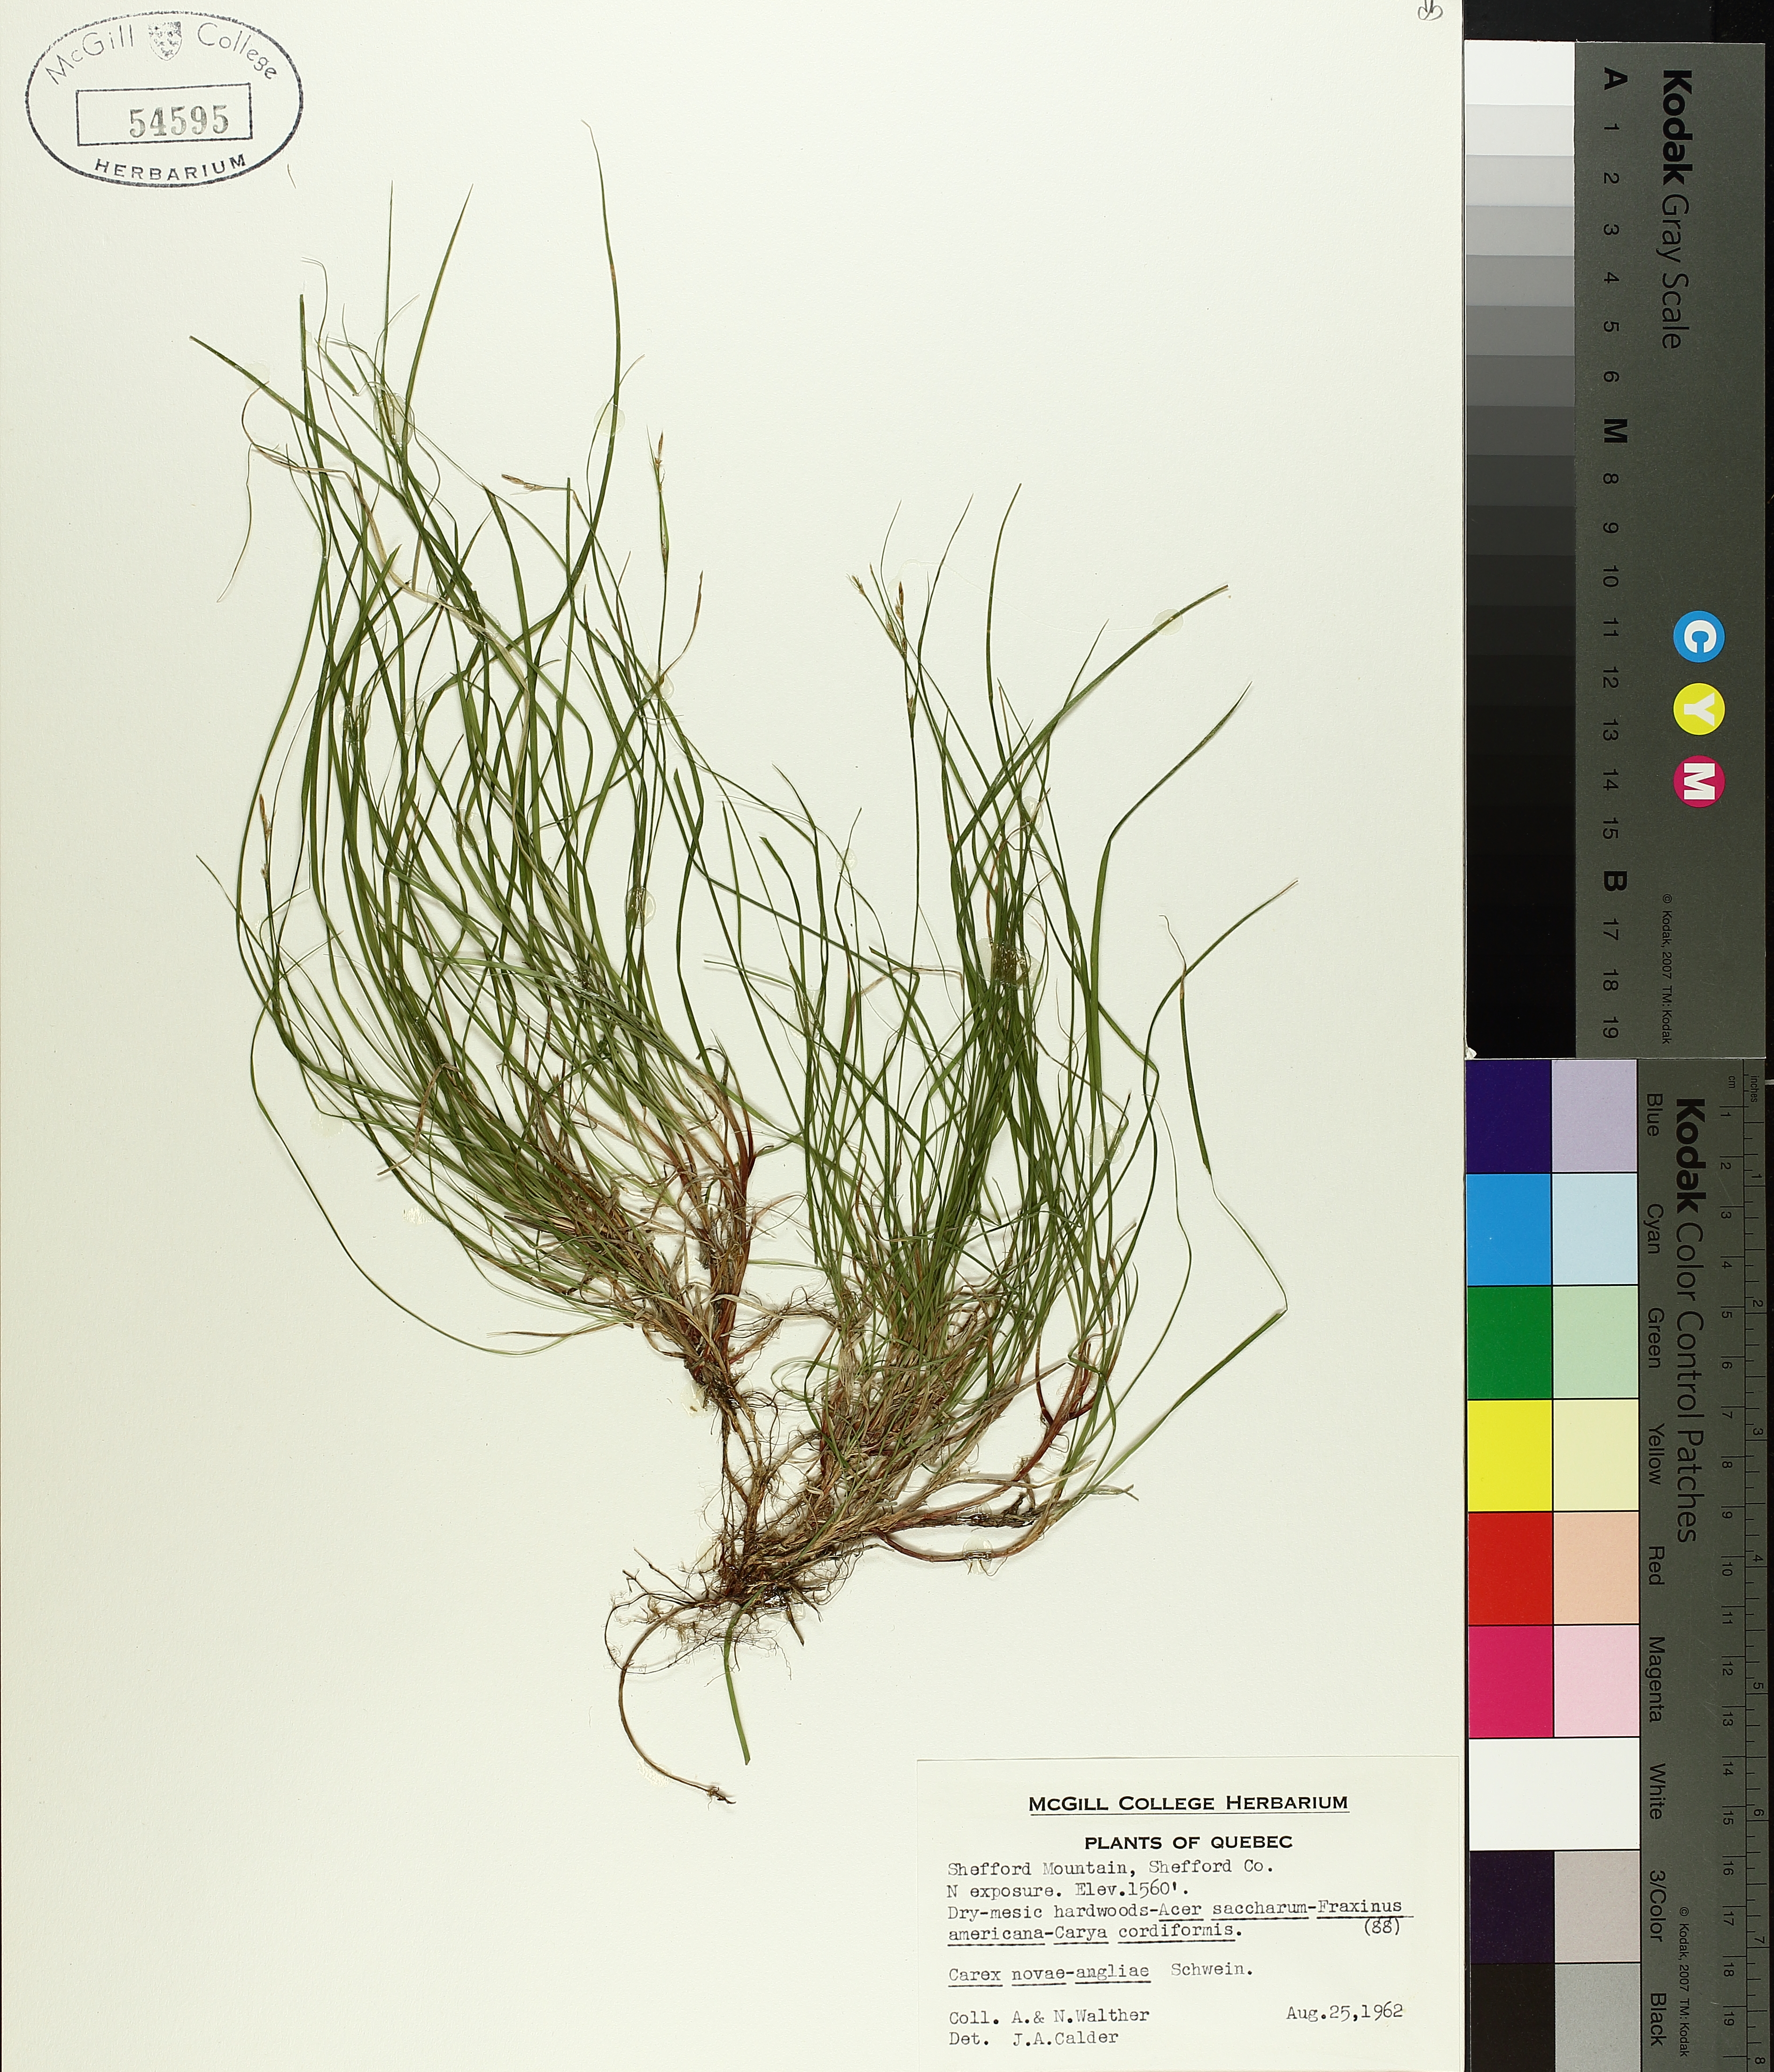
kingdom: Plantae
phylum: Tracheophyta
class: Liliopsida
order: Poales
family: Cyperaceae
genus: Carex
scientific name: Carex novae-angliae
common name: New england sedge
